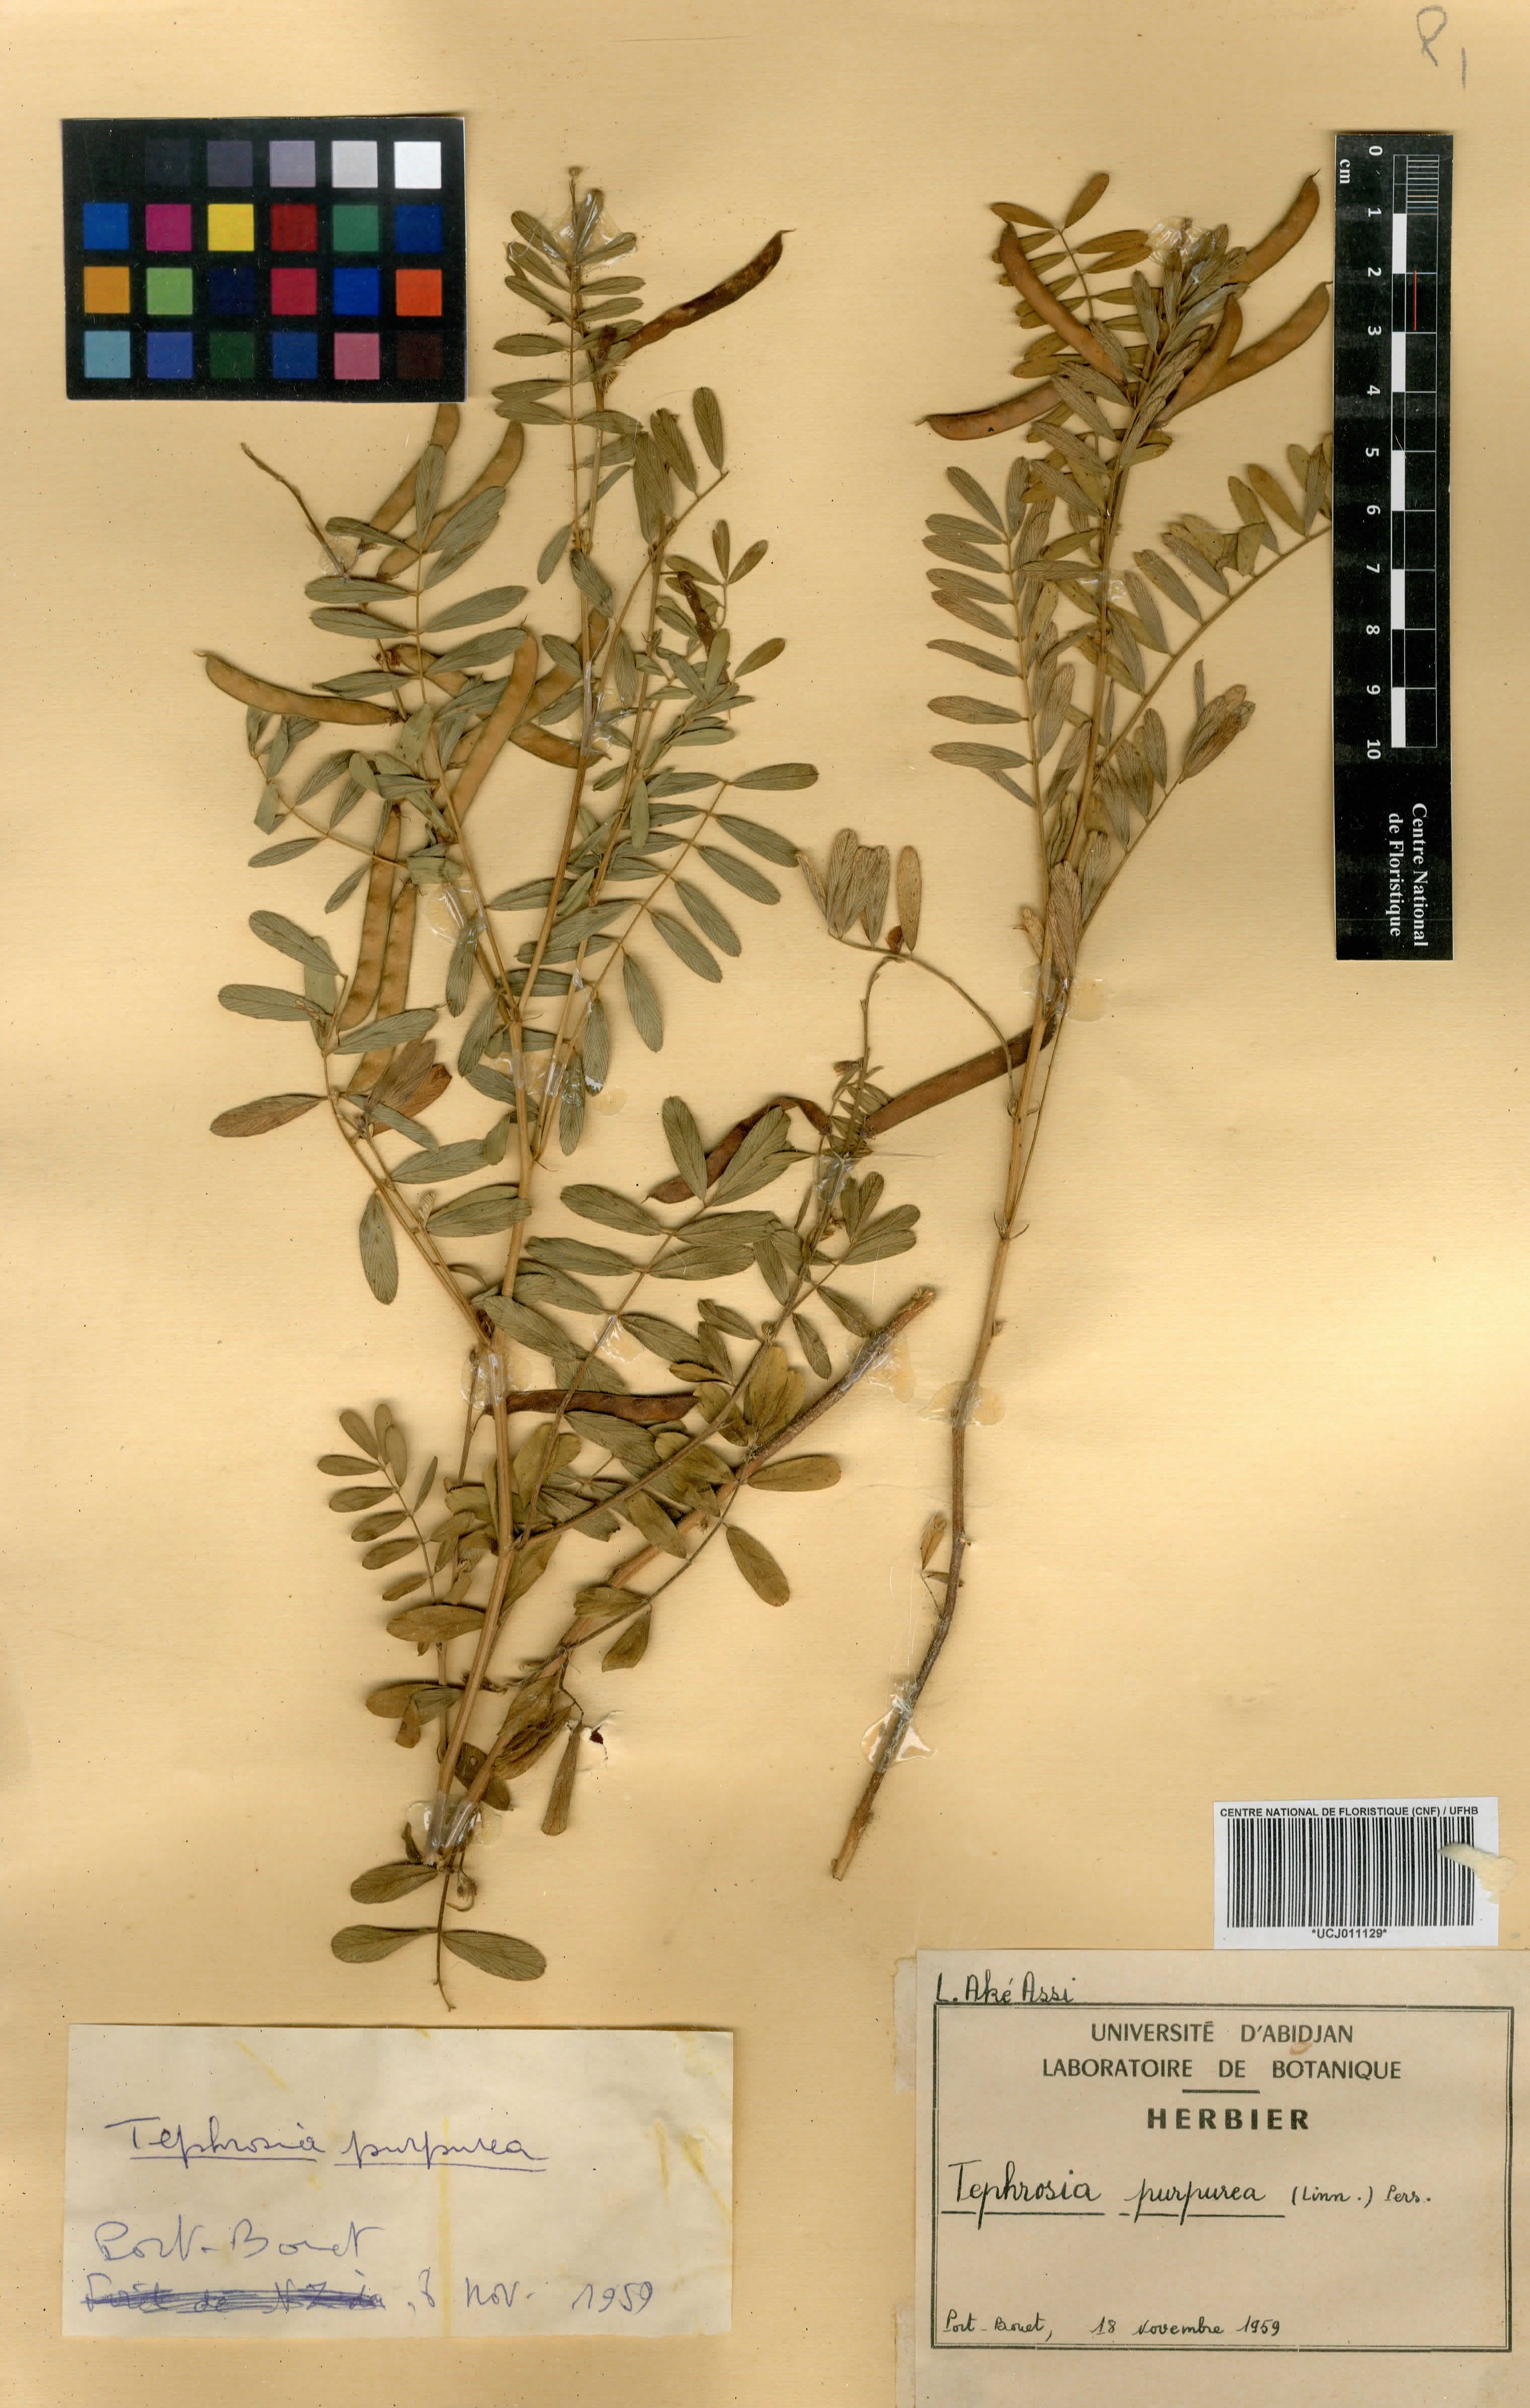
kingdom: Plantae
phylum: Tracheophyta
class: Magnoliopsida
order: Fabales
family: Fabaceae
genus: Tephrosia
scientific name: Tephrosia purpurea
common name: Fishpoison
